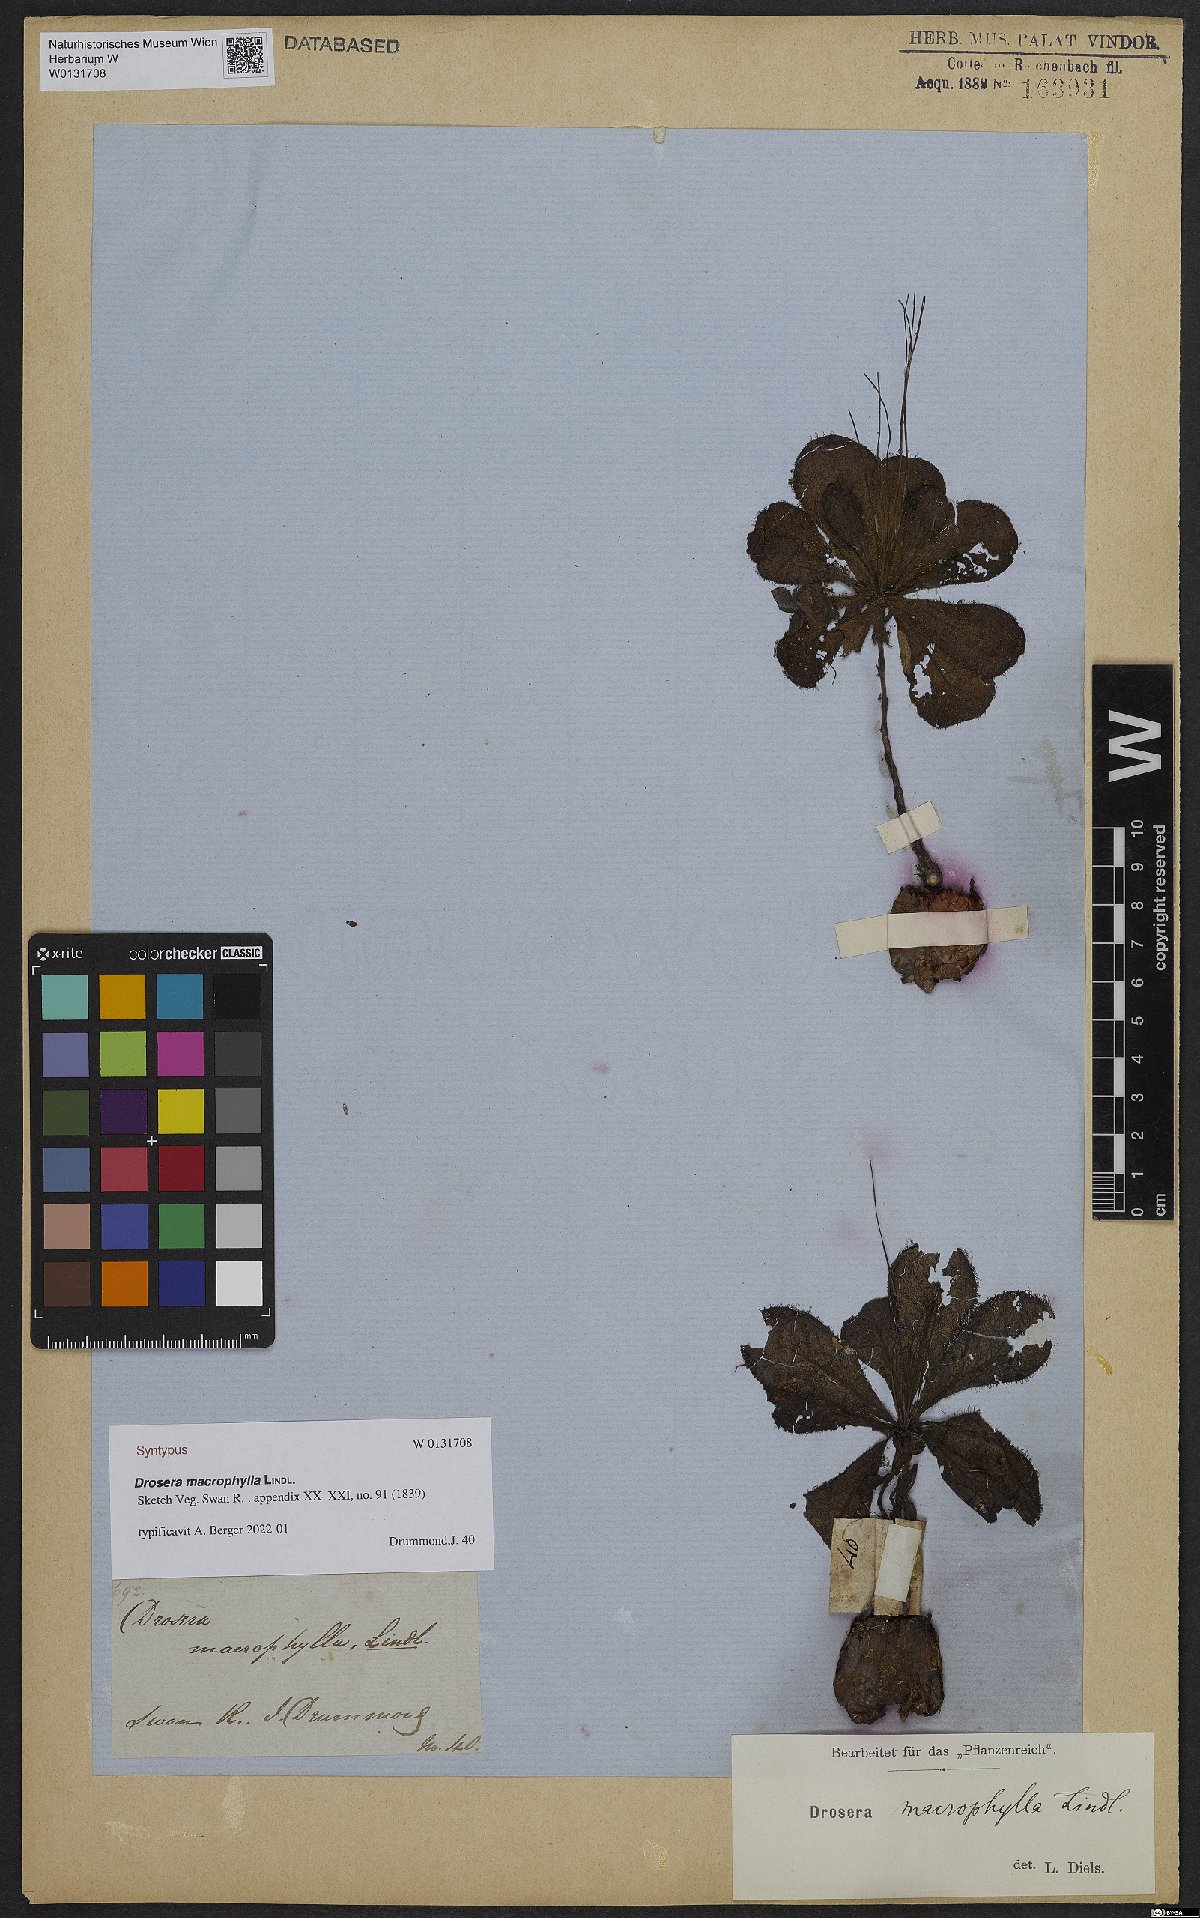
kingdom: Plantae
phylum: Tracheophyta
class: Magnoliopsida
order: Caryophyllales
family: Droseraceae
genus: Drosera
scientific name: Drosera macrophylla
